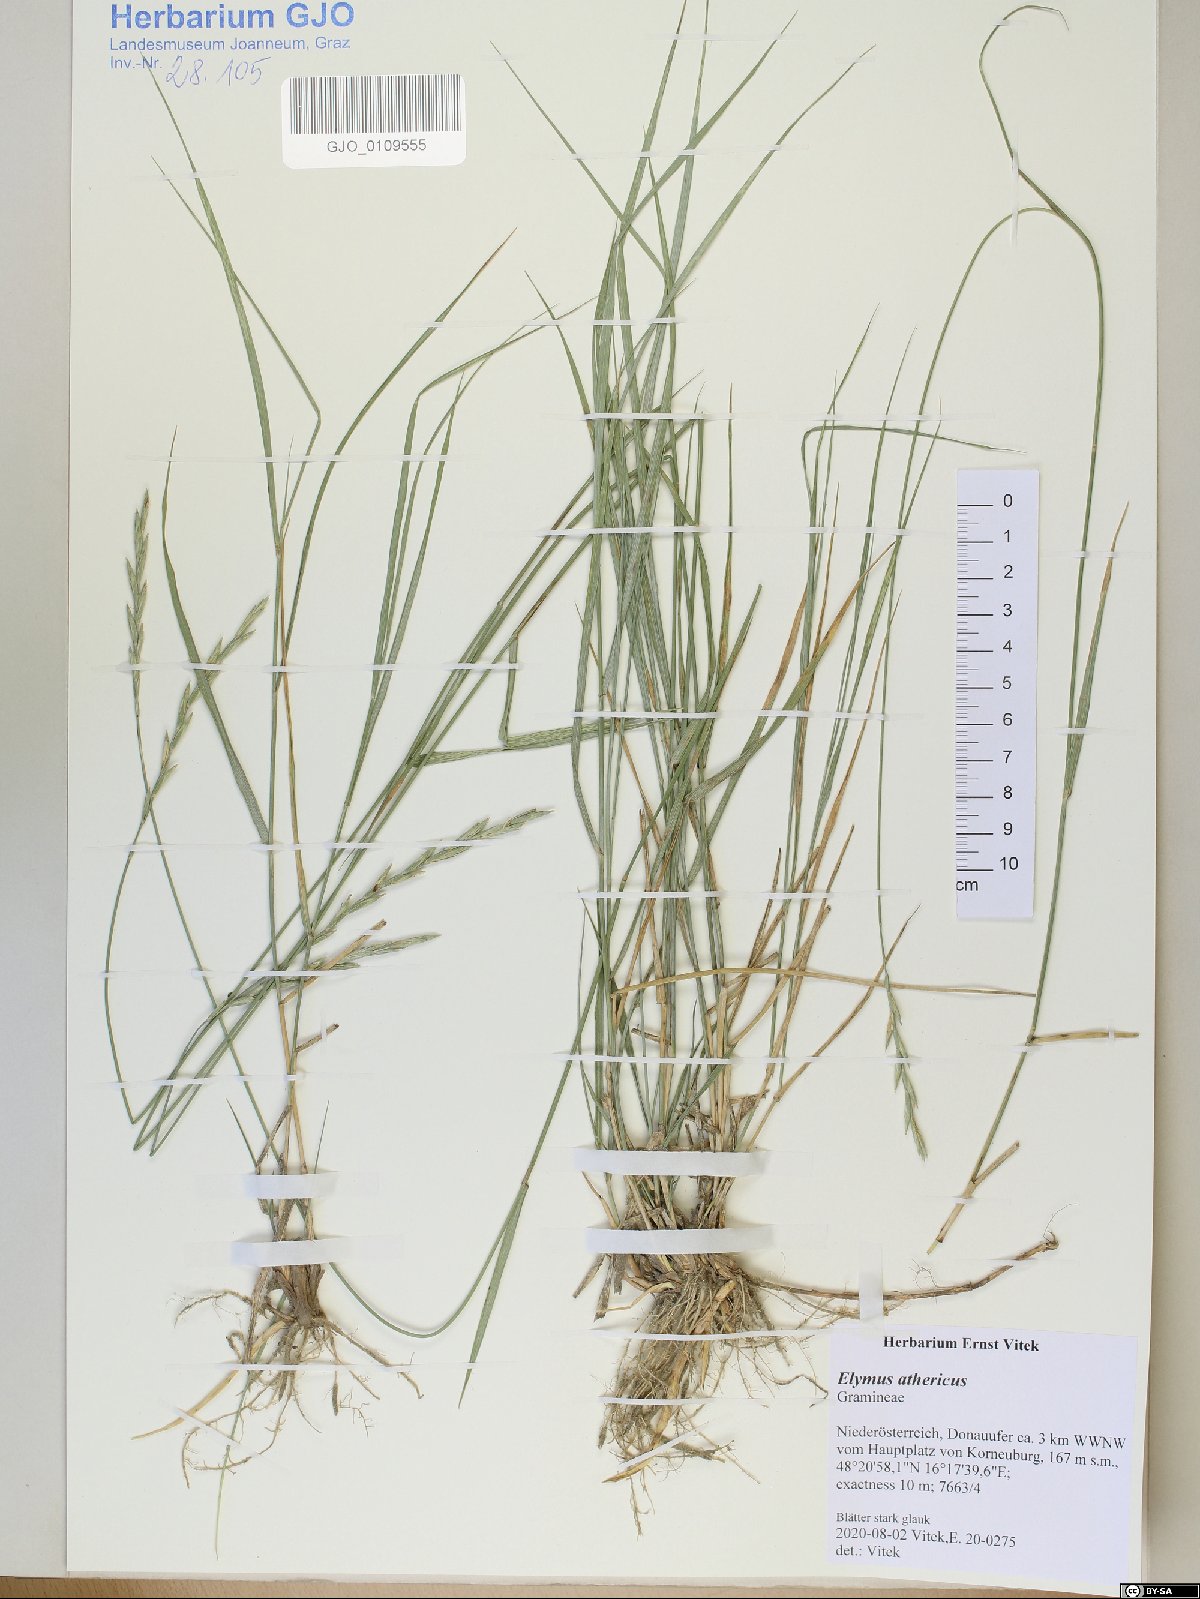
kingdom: Plantae
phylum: Tracheophyta
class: Liliopsida
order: Poales
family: Poaceae
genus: Elymus
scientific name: Elymus athericus
